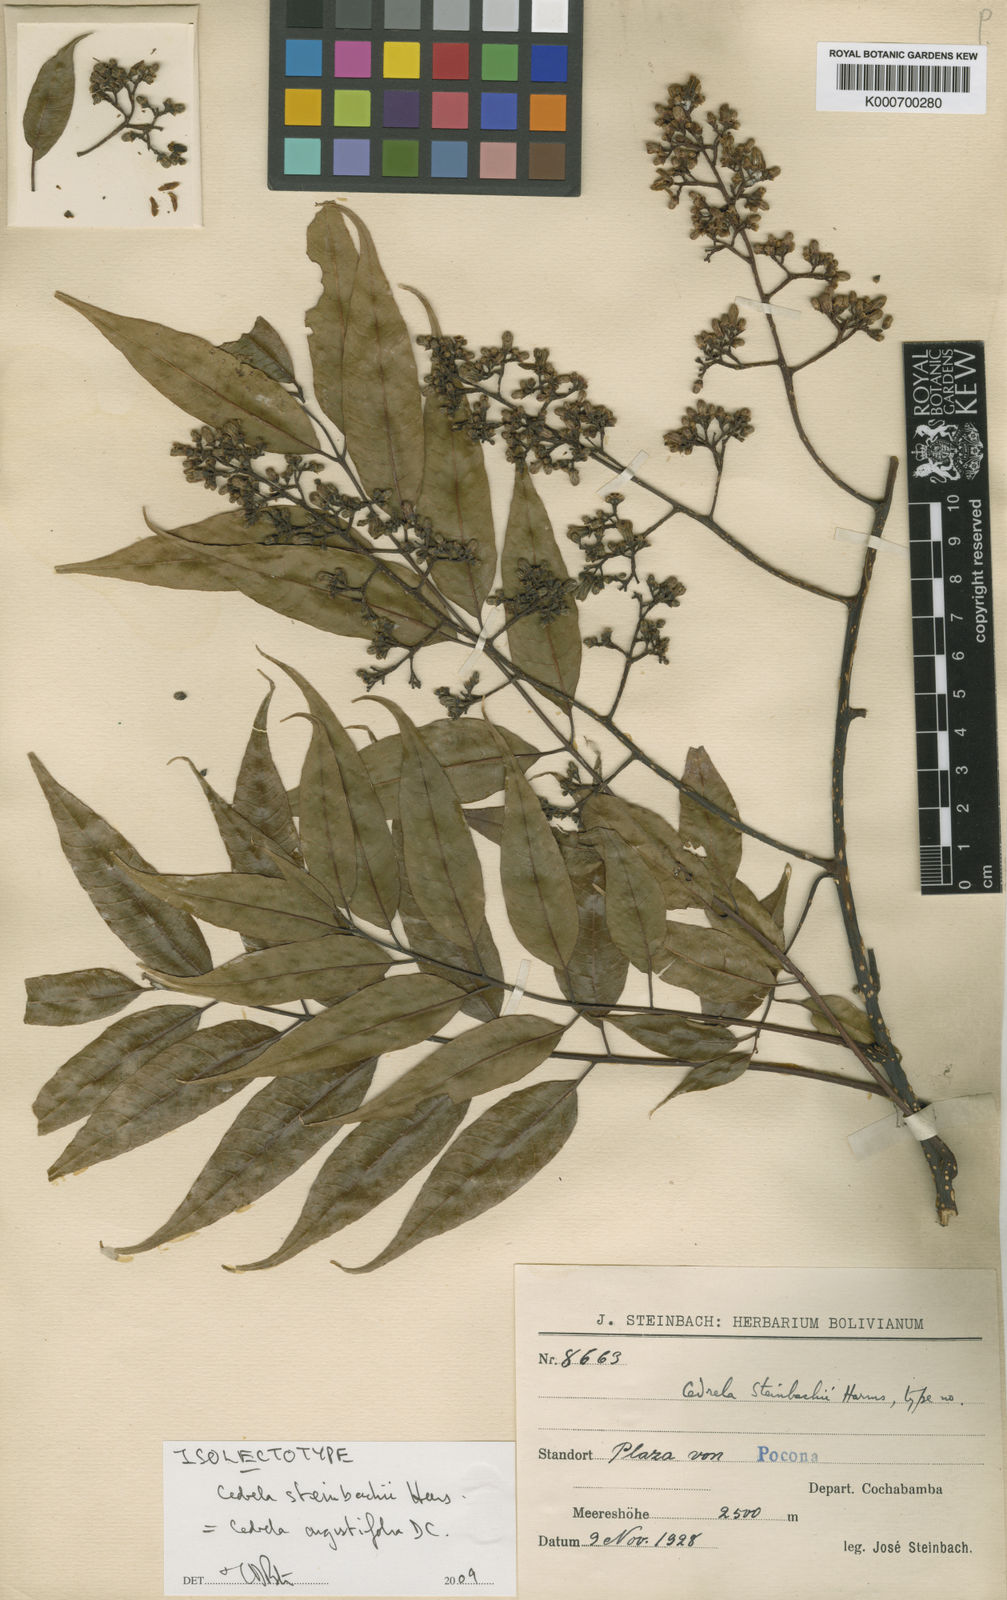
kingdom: Plantae
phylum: Tracheophyta
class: Magnoliopsida
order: Sapindales
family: Meliaceae
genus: Cedrela
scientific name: Cedrela
